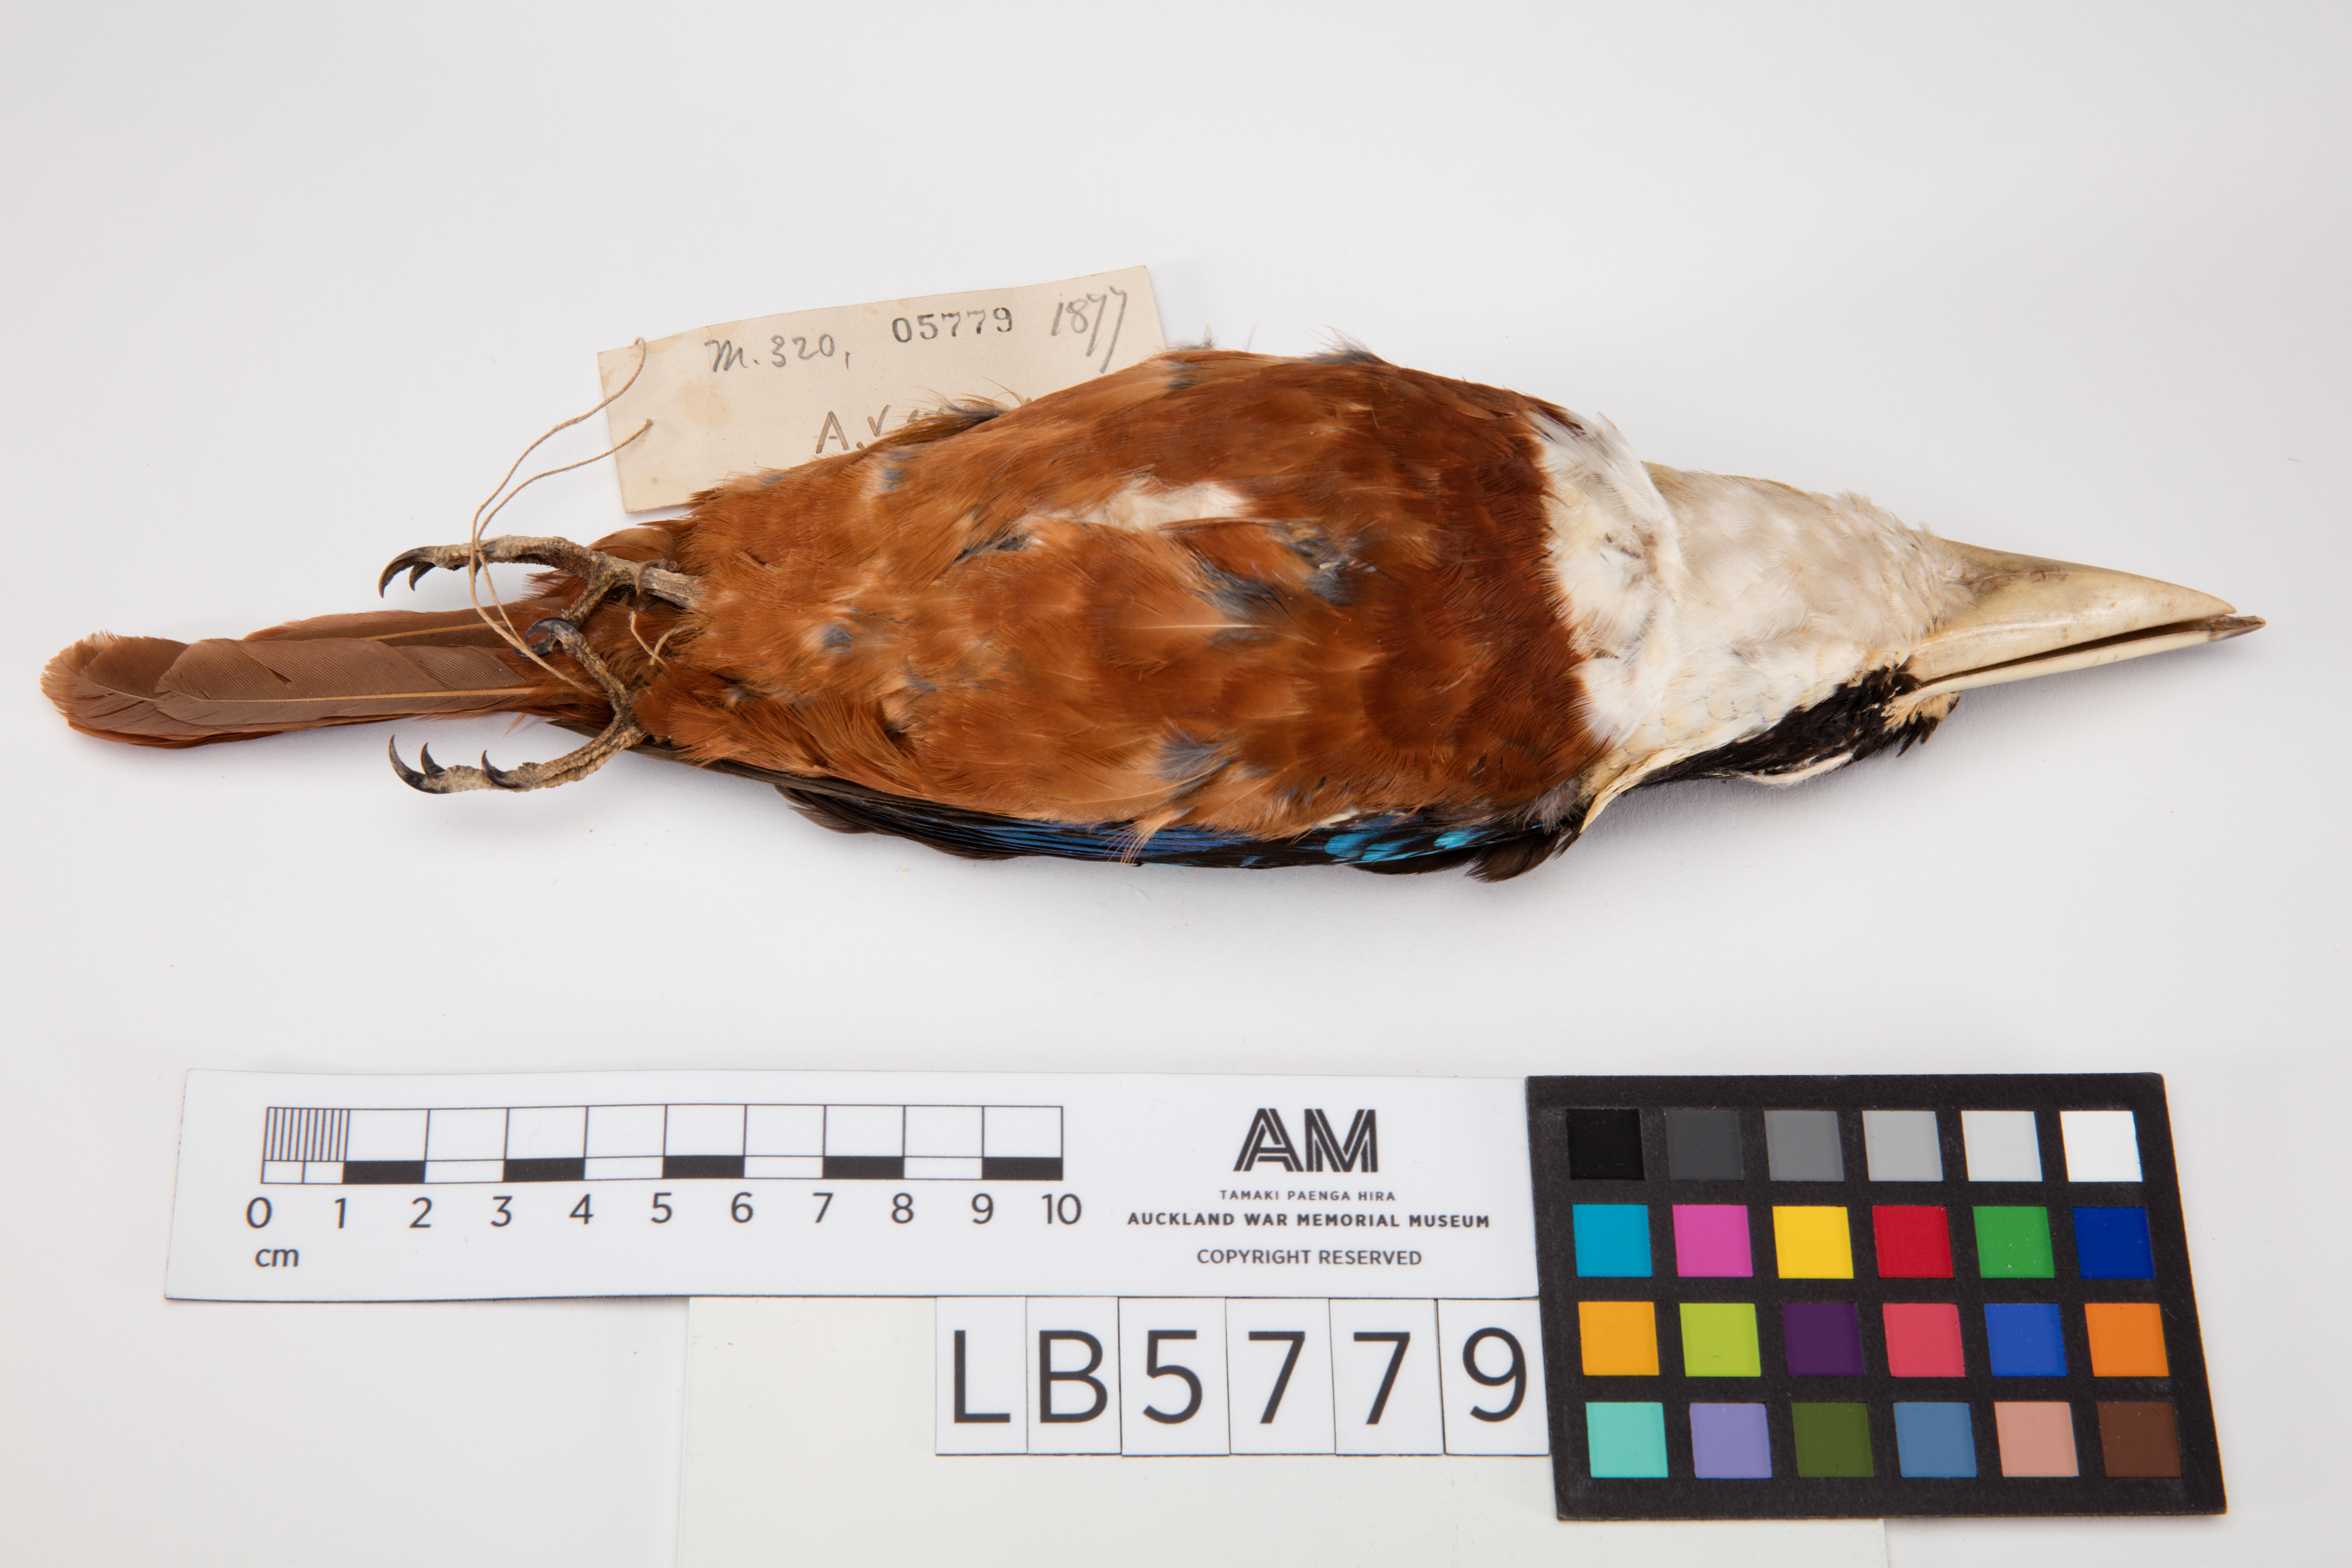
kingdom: Animalia
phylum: Chordata
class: Aves
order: Coraciiformes
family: Alcedinidae
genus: Dacelo
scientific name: Dacelo gaudichaud
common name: Rufous-bellied kookaburra
